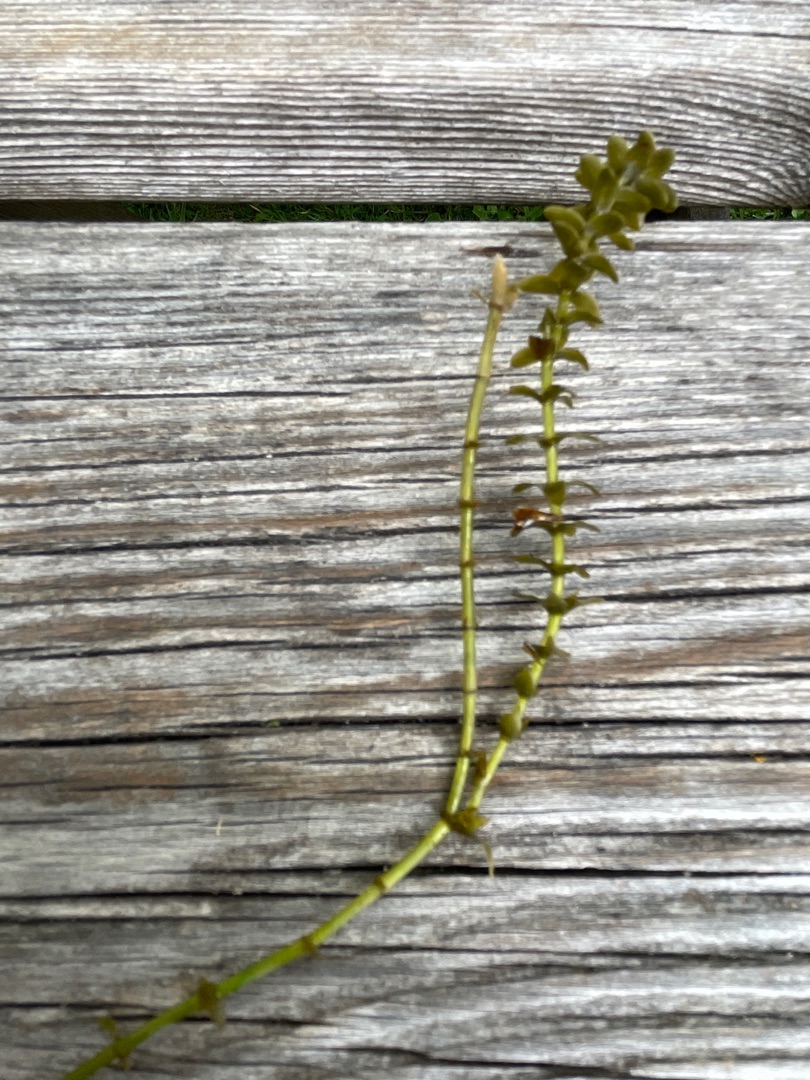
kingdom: Plantae
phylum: Tracheophyta
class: Liliopsida
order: Alismatales
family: Hydrocharitaceae
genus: Elodea
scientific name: Elodea canadensis
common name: Vandpest
